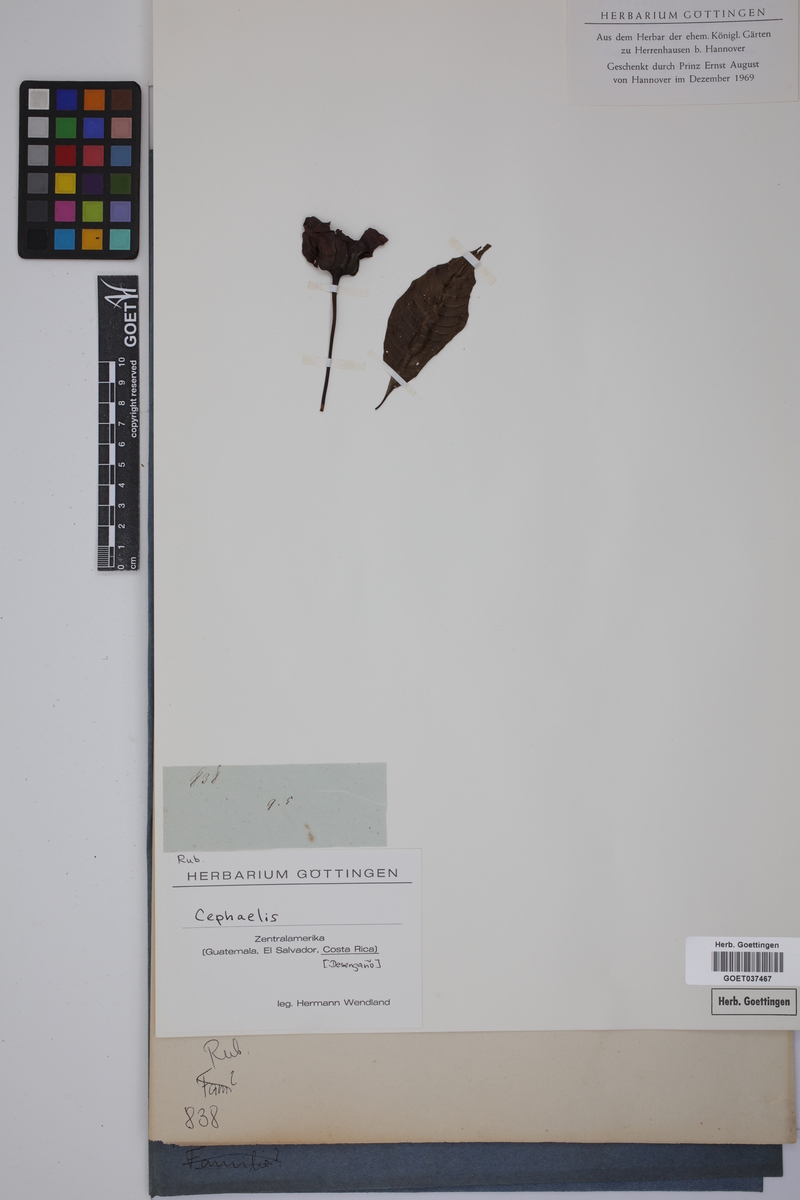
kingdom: Plantae
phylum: Tracheophyta
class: Magnoliopsida
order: Gentianales
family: Rubiaceae
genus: Psychotria
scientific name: Psychotria
